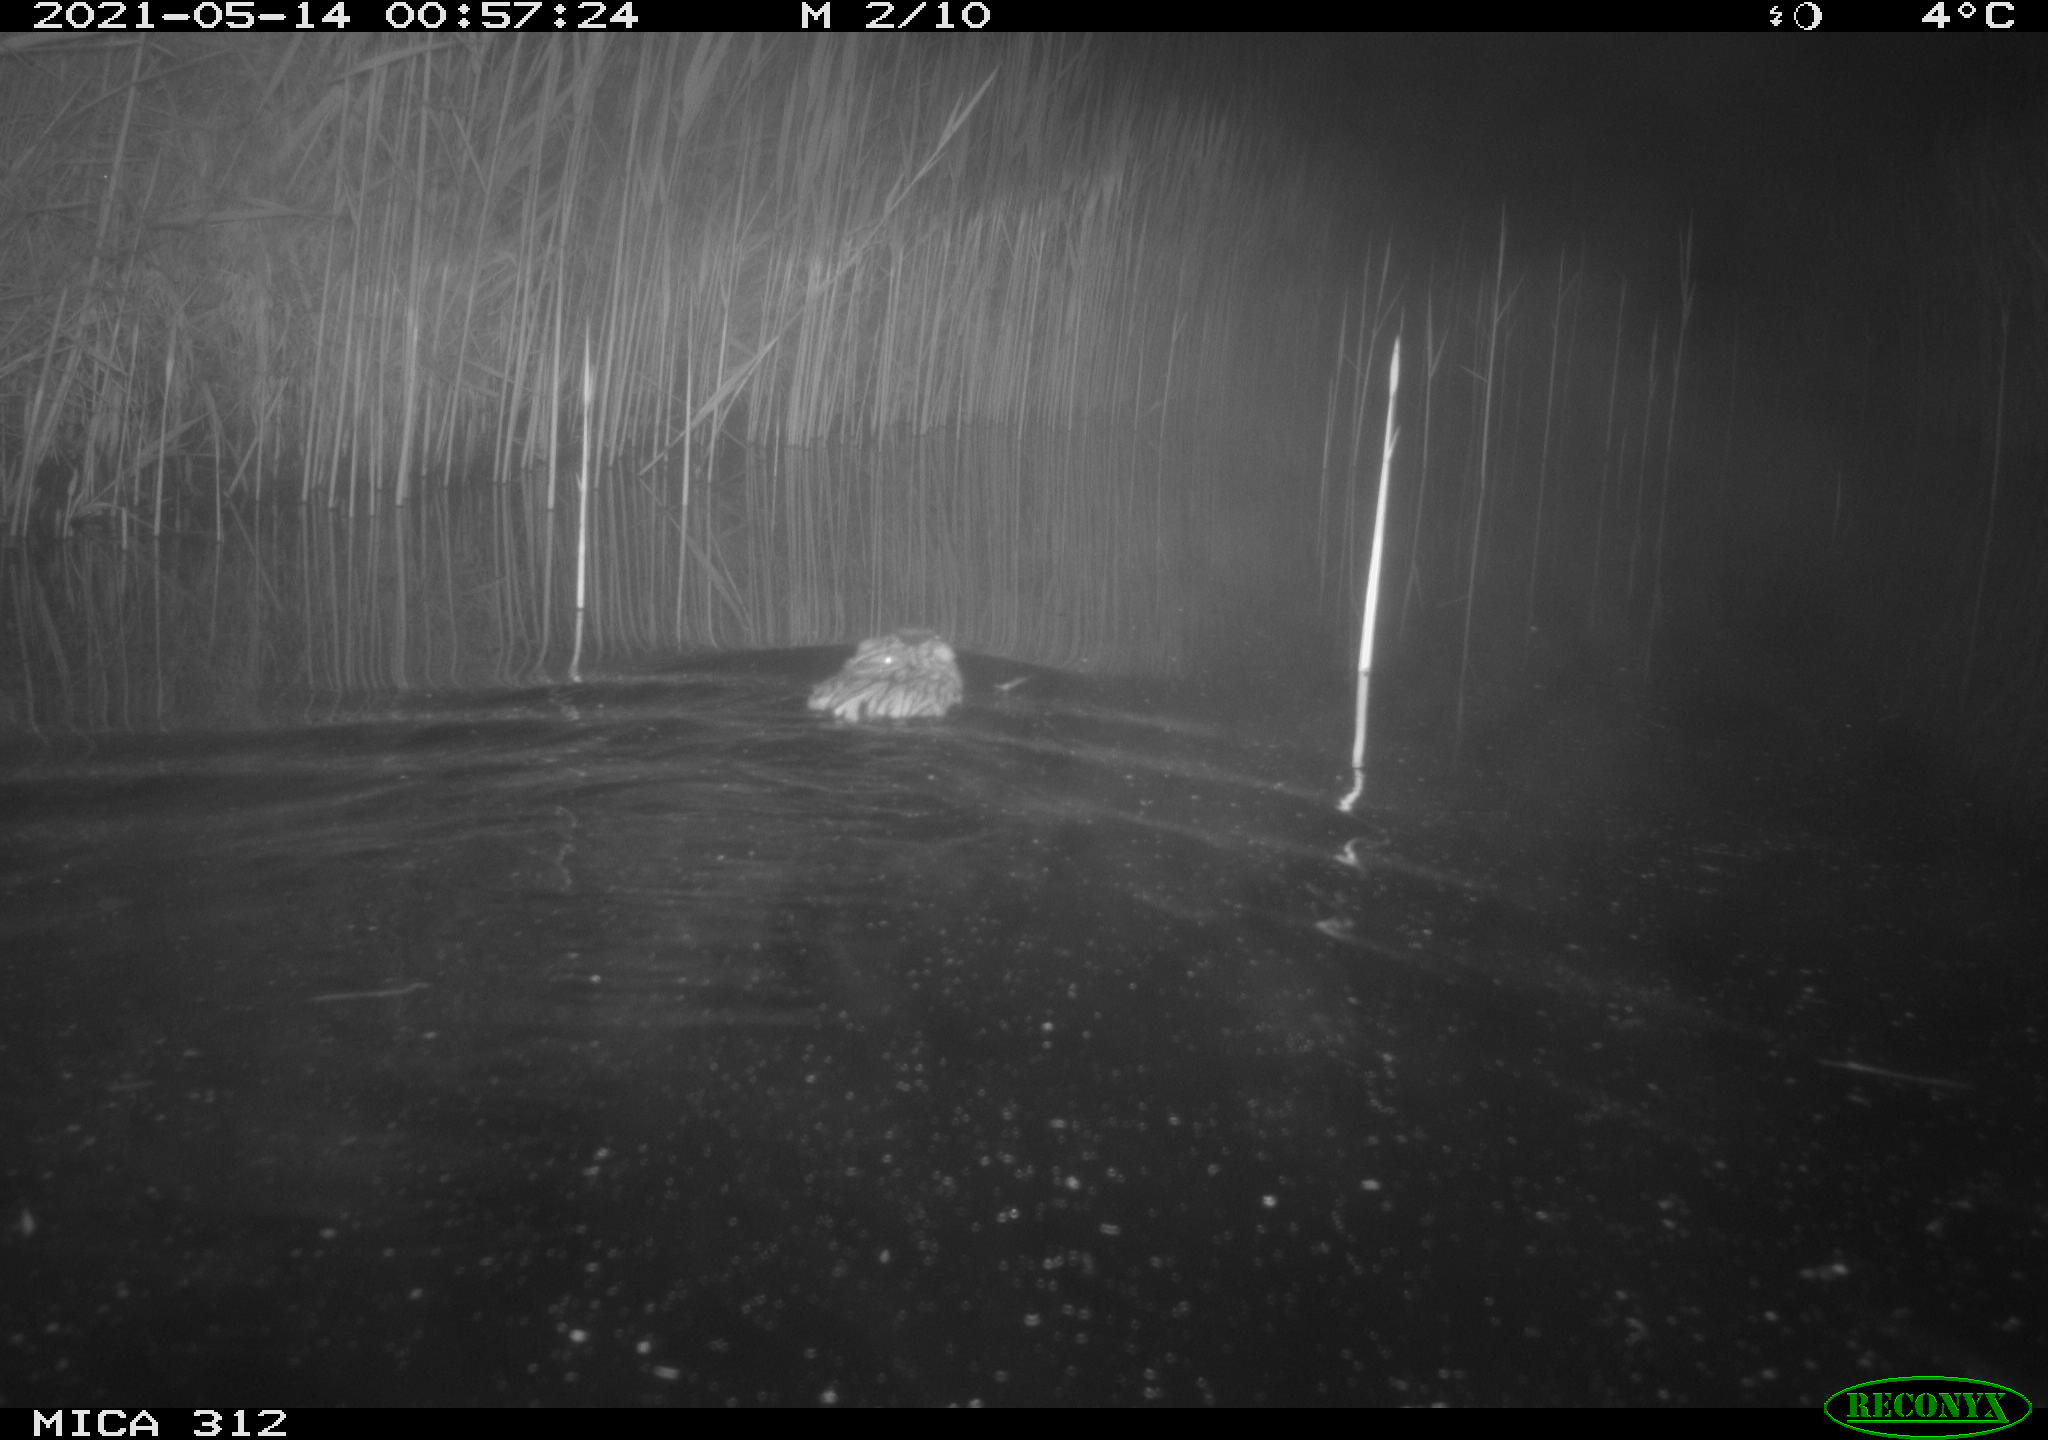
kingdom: Animalia
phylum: Chordata
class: Mammalia
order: Rodentia
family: Cricetidae
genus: Ondatra
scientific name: Ondatra zibethicus
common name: Muskrat
